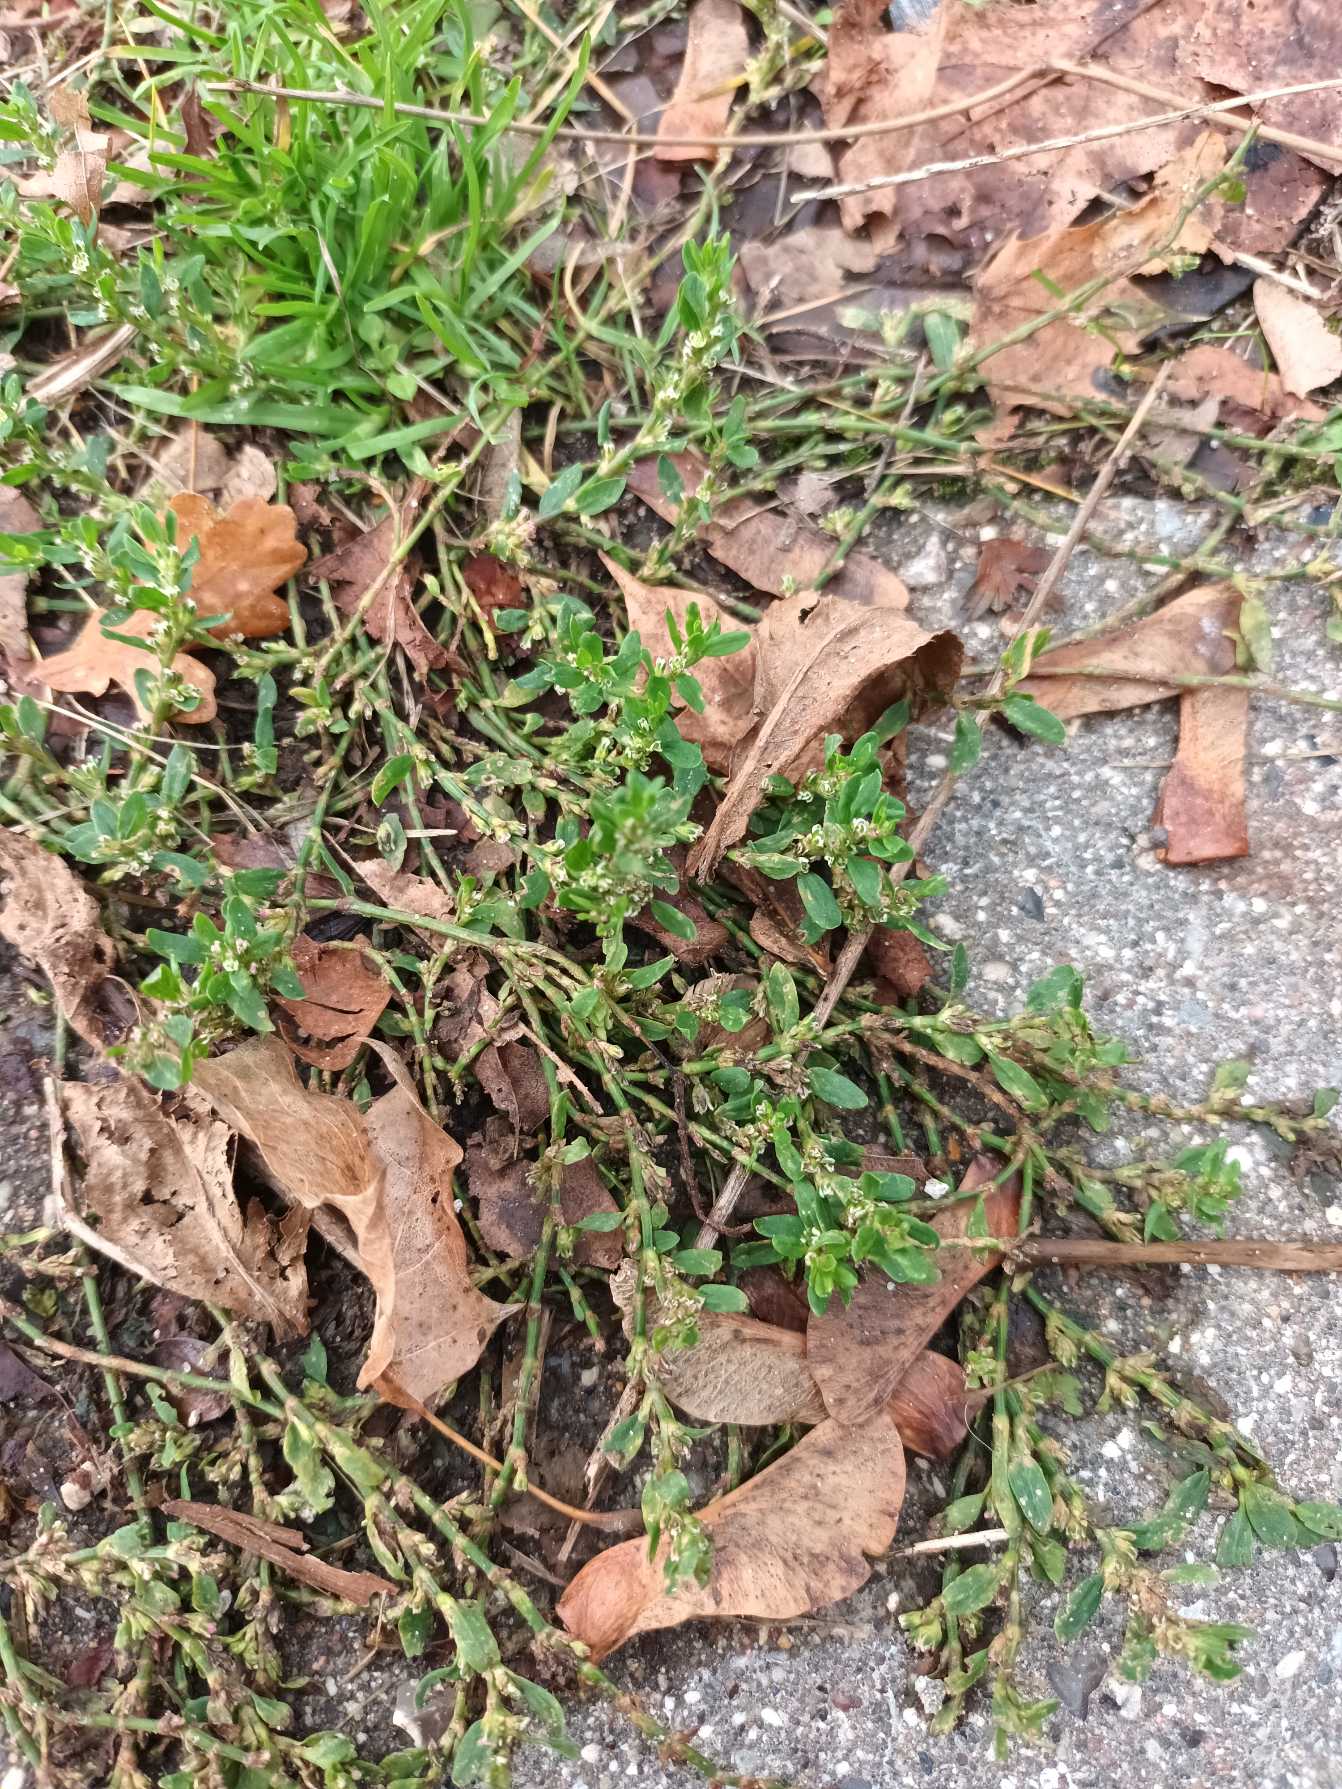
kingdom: Plantae
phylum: Tracheophyta
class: Magnoliopsida
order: Caryophyllales
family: Polygonaceae
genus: Polygonum
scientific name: Polygonum arenastrum
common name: Liggende vej-pileurt
